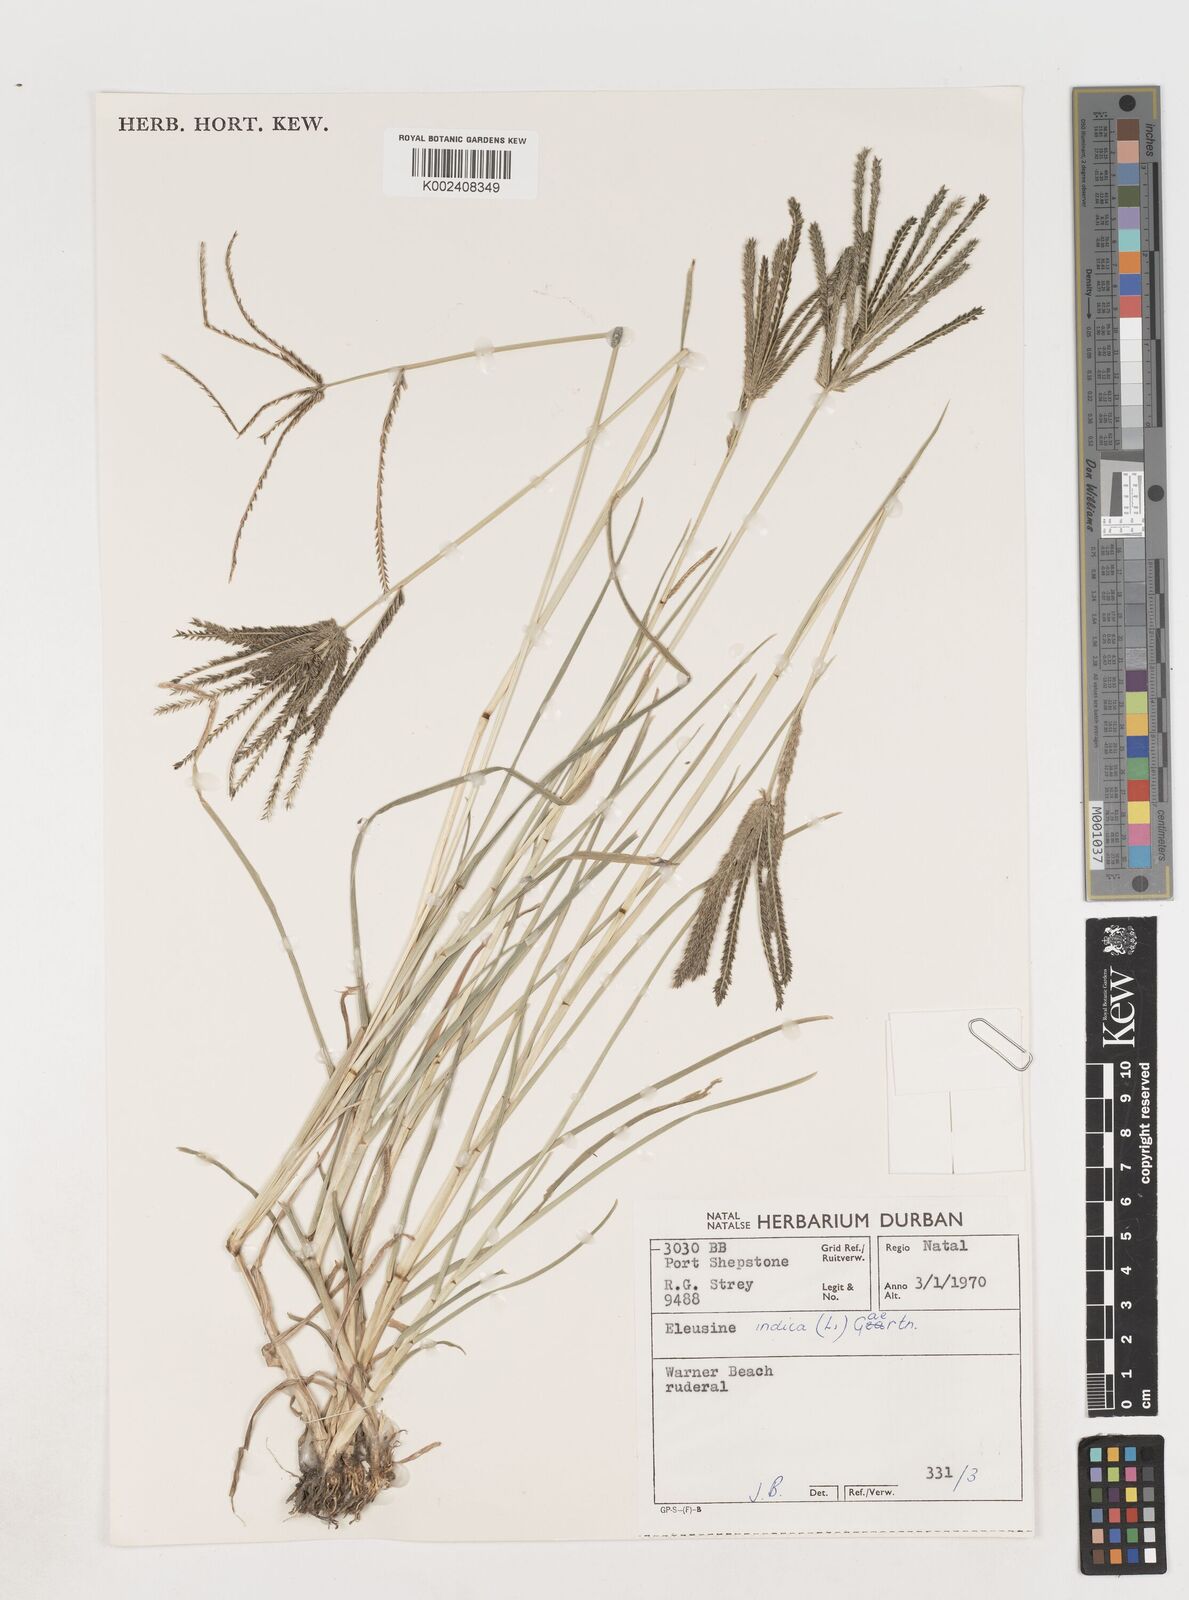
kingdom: Plantae
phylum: Tracheophyta
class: Liliopsida
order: Poales
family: Poaceae
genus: Eleusine
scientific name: Eleusine indica
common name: Yard-grass
